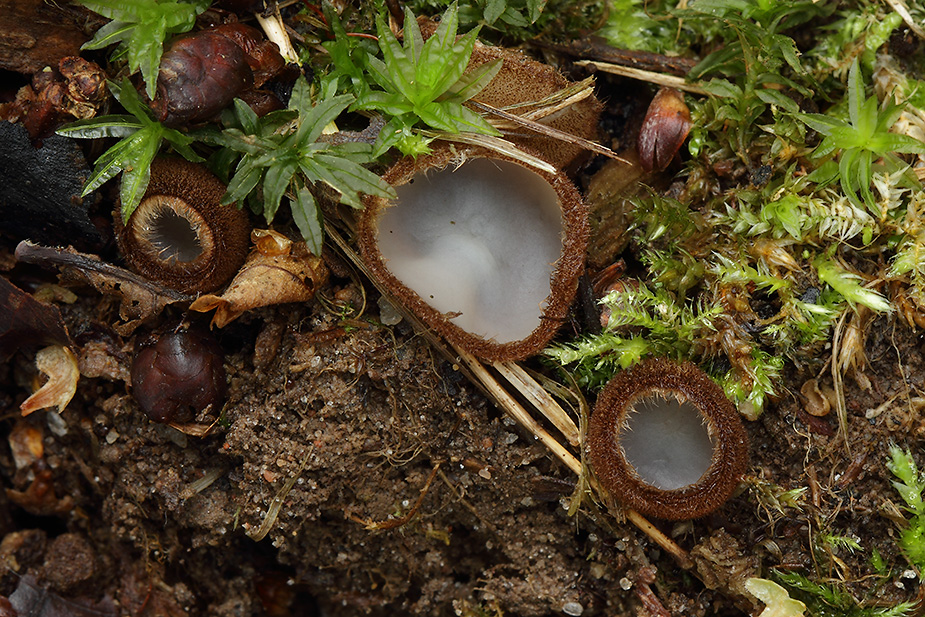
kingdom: Fungi
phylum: Ascomycota
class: Pezizomycetes
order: Pezizales
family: Pyronemataceae
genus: Humaria
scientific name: Humaria hemisphaerica
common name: halvkugleformet børstebæger
